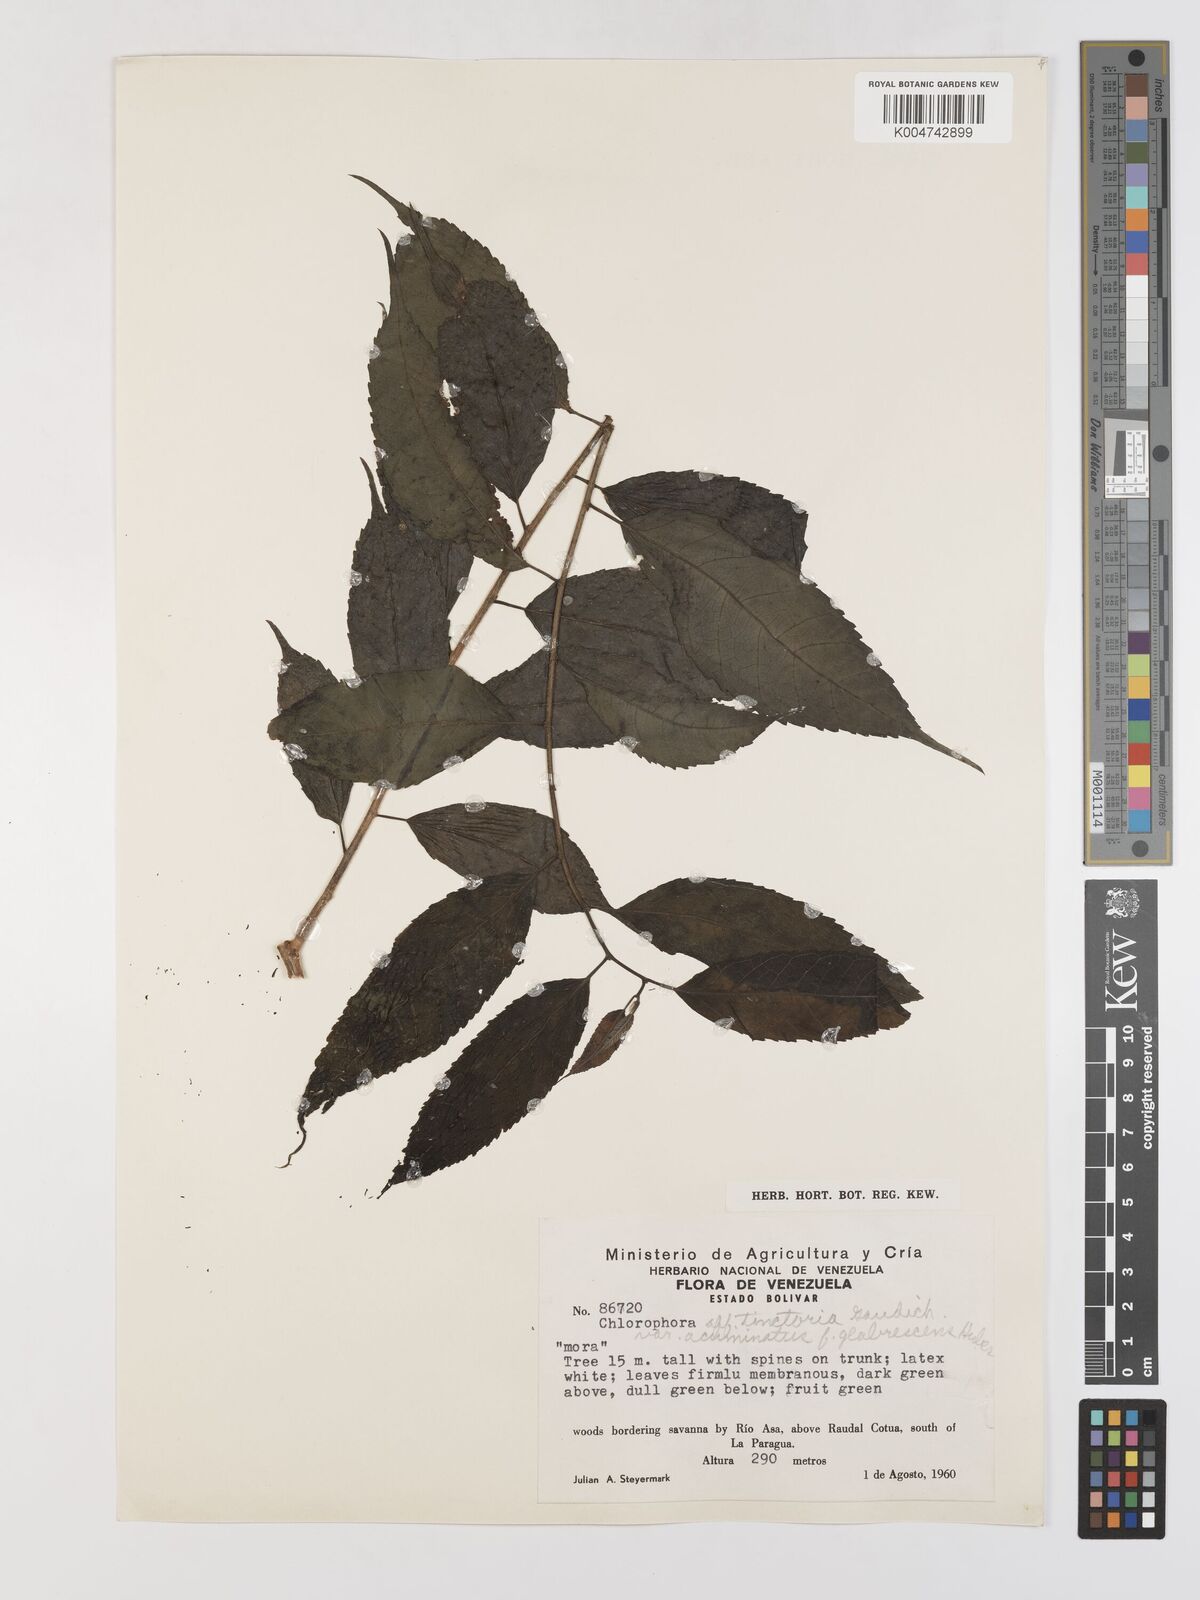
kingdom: Plantae
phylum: Tracheophyta
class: Magnoliopsida
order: Rosales
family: Moraceae
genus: Maclura
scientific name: Maclura tinctoria
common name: Old fustic
